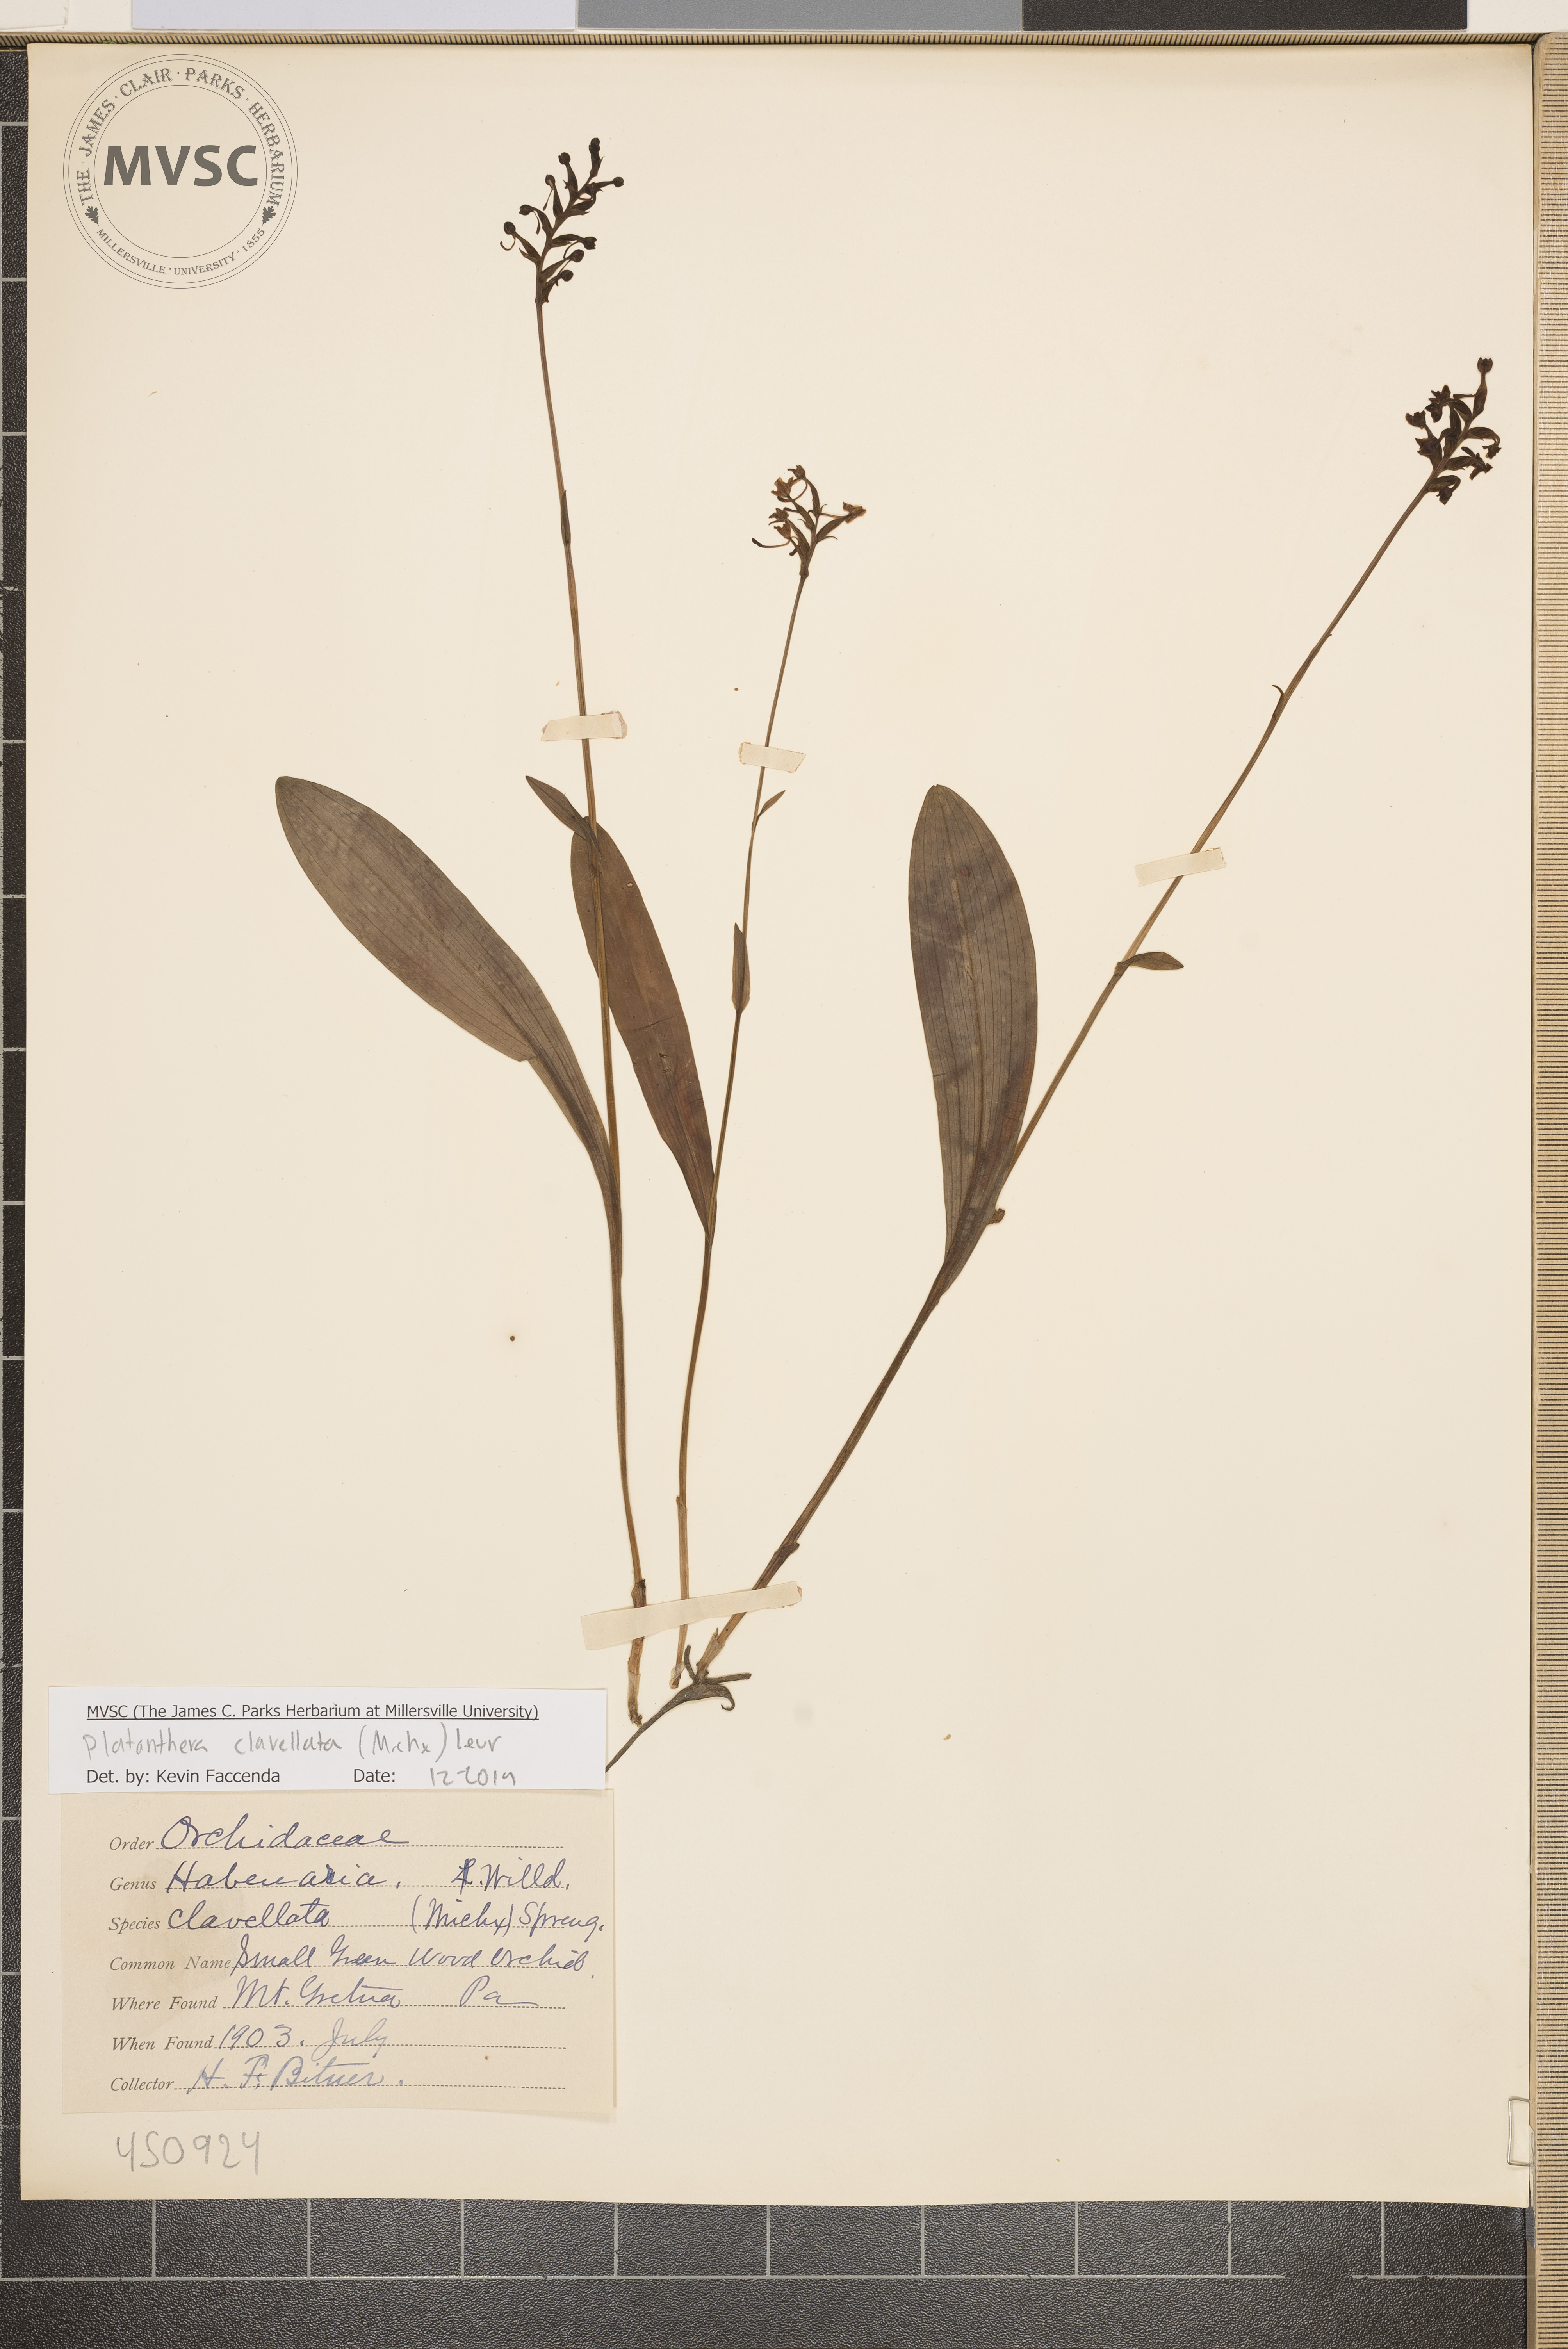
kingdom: Plantae
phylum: Tracheophyta
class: Liliopsida
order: Asparagales
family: Orchidaceae
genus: Platanthera
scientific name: Platanthera clavellata
